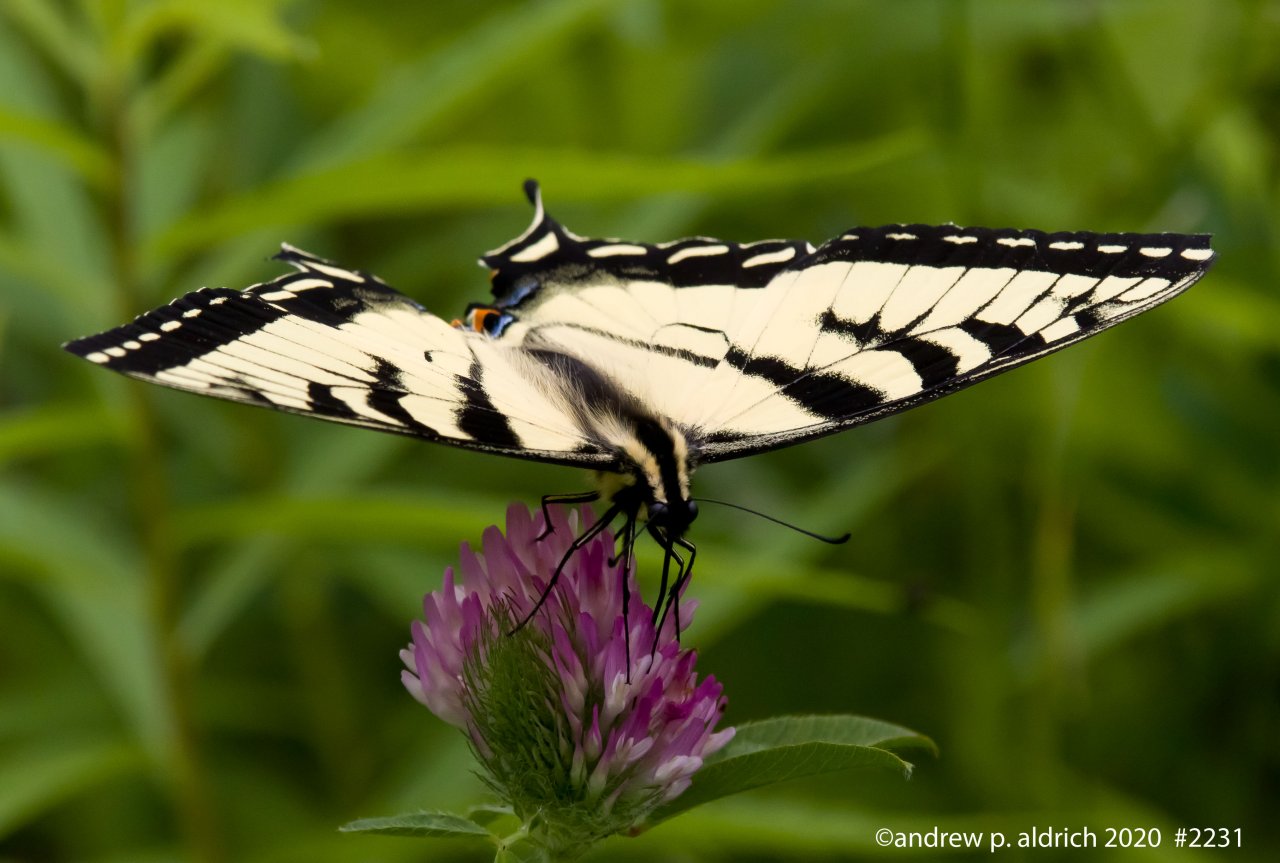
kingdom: Animalia
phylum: Arthropoda
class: Insecta
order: Lepidoptera
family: Papilionidae
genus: Pterourus
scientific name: Pterourus glaucus
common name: Eastern Tiger Swallowtail
